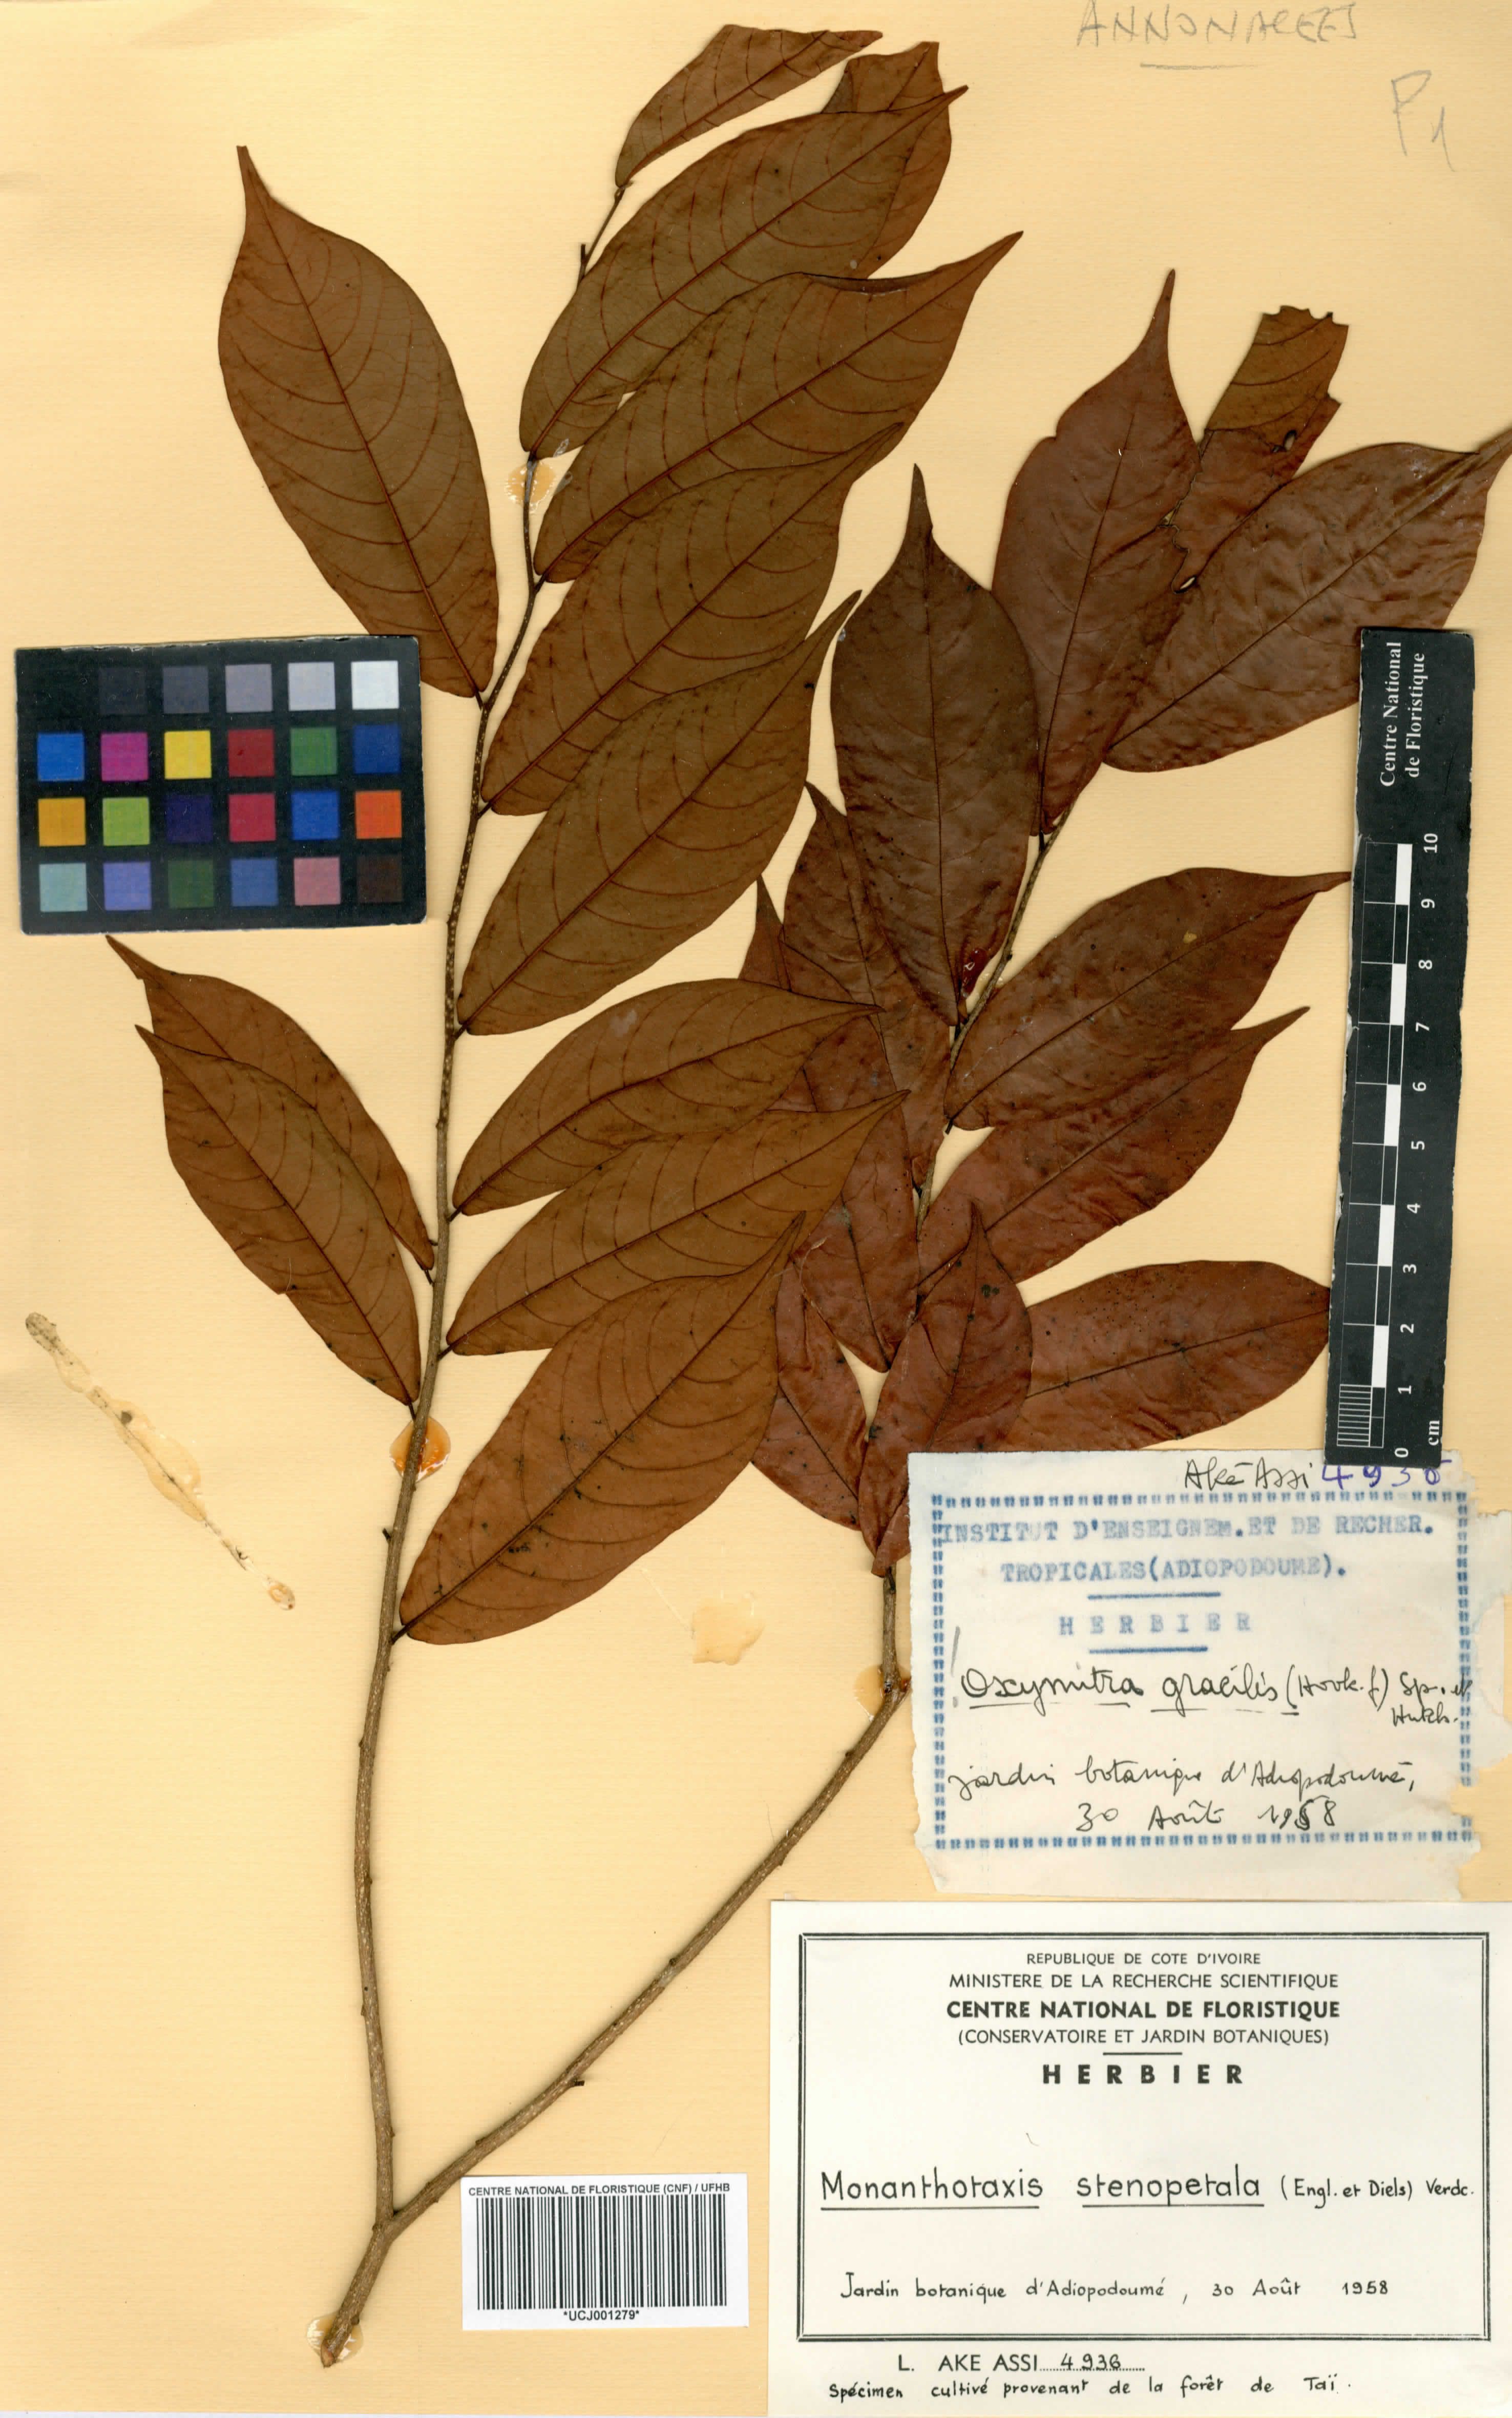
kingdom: Plantae
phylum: Tracheophyta
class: Magnoliopsida
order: Magnoliales
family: Annonaceae
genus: Monanthotaxis
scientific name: Monanthotaxis stenosepala
